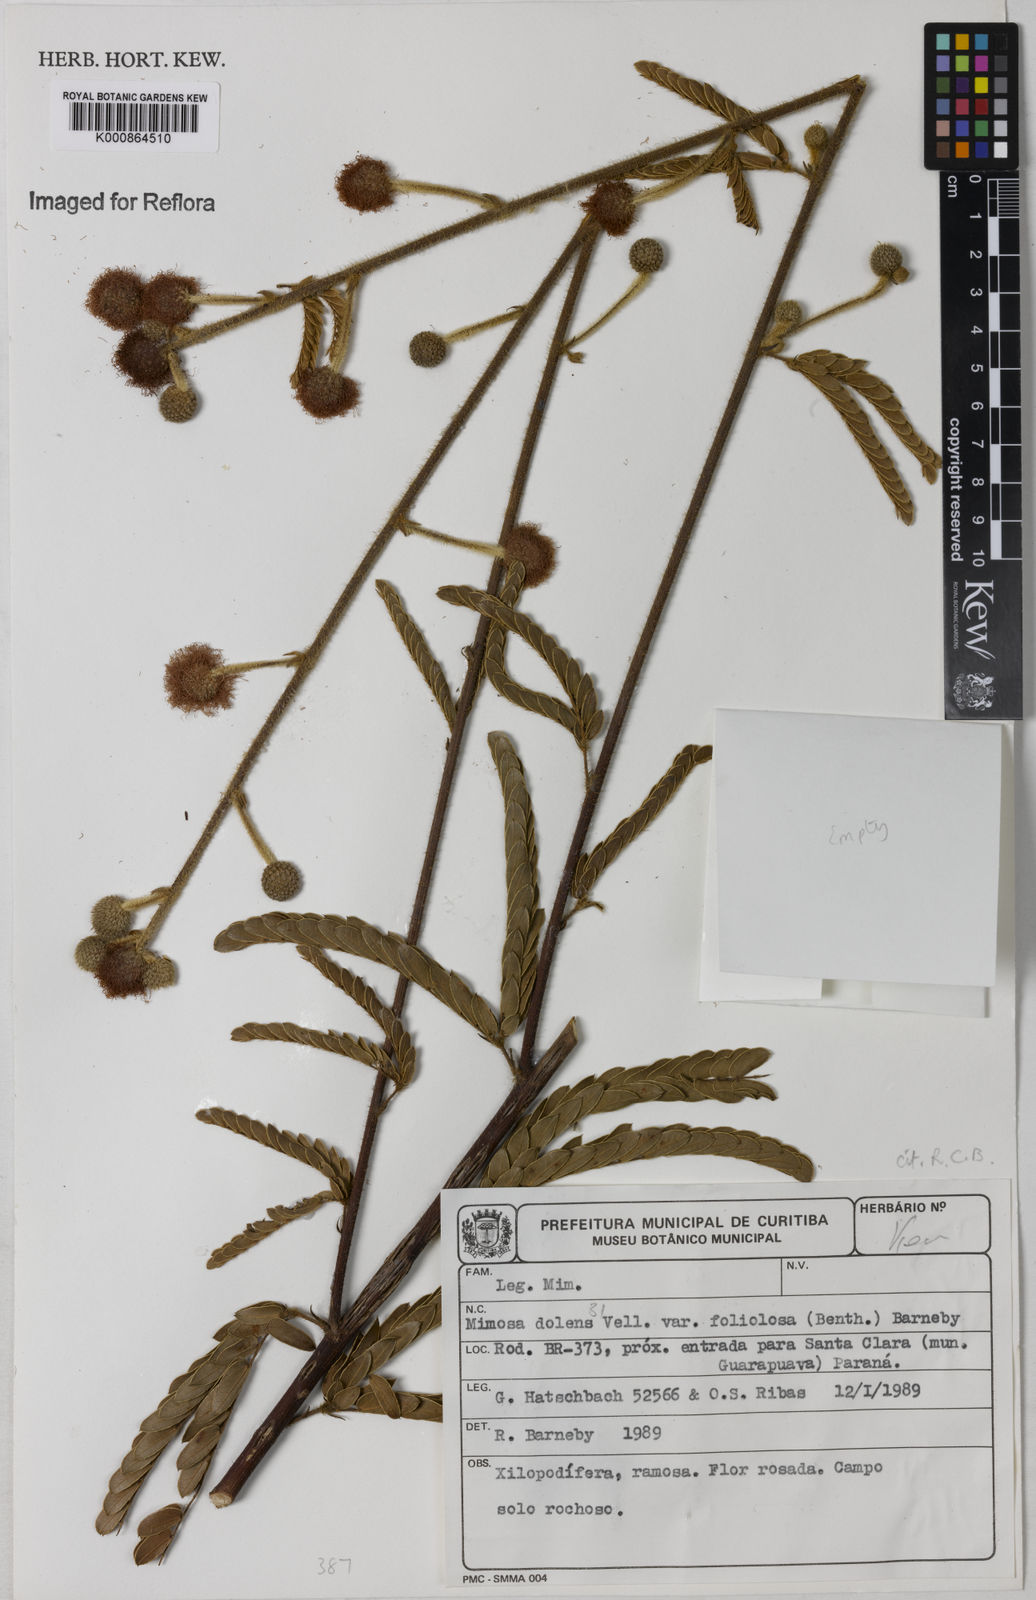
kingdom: Plantae
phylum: Tracheophyta
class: Magnoliopsida
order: Fabales
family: Fabaceae
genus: Mimosa
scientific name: Mimosa dolens
